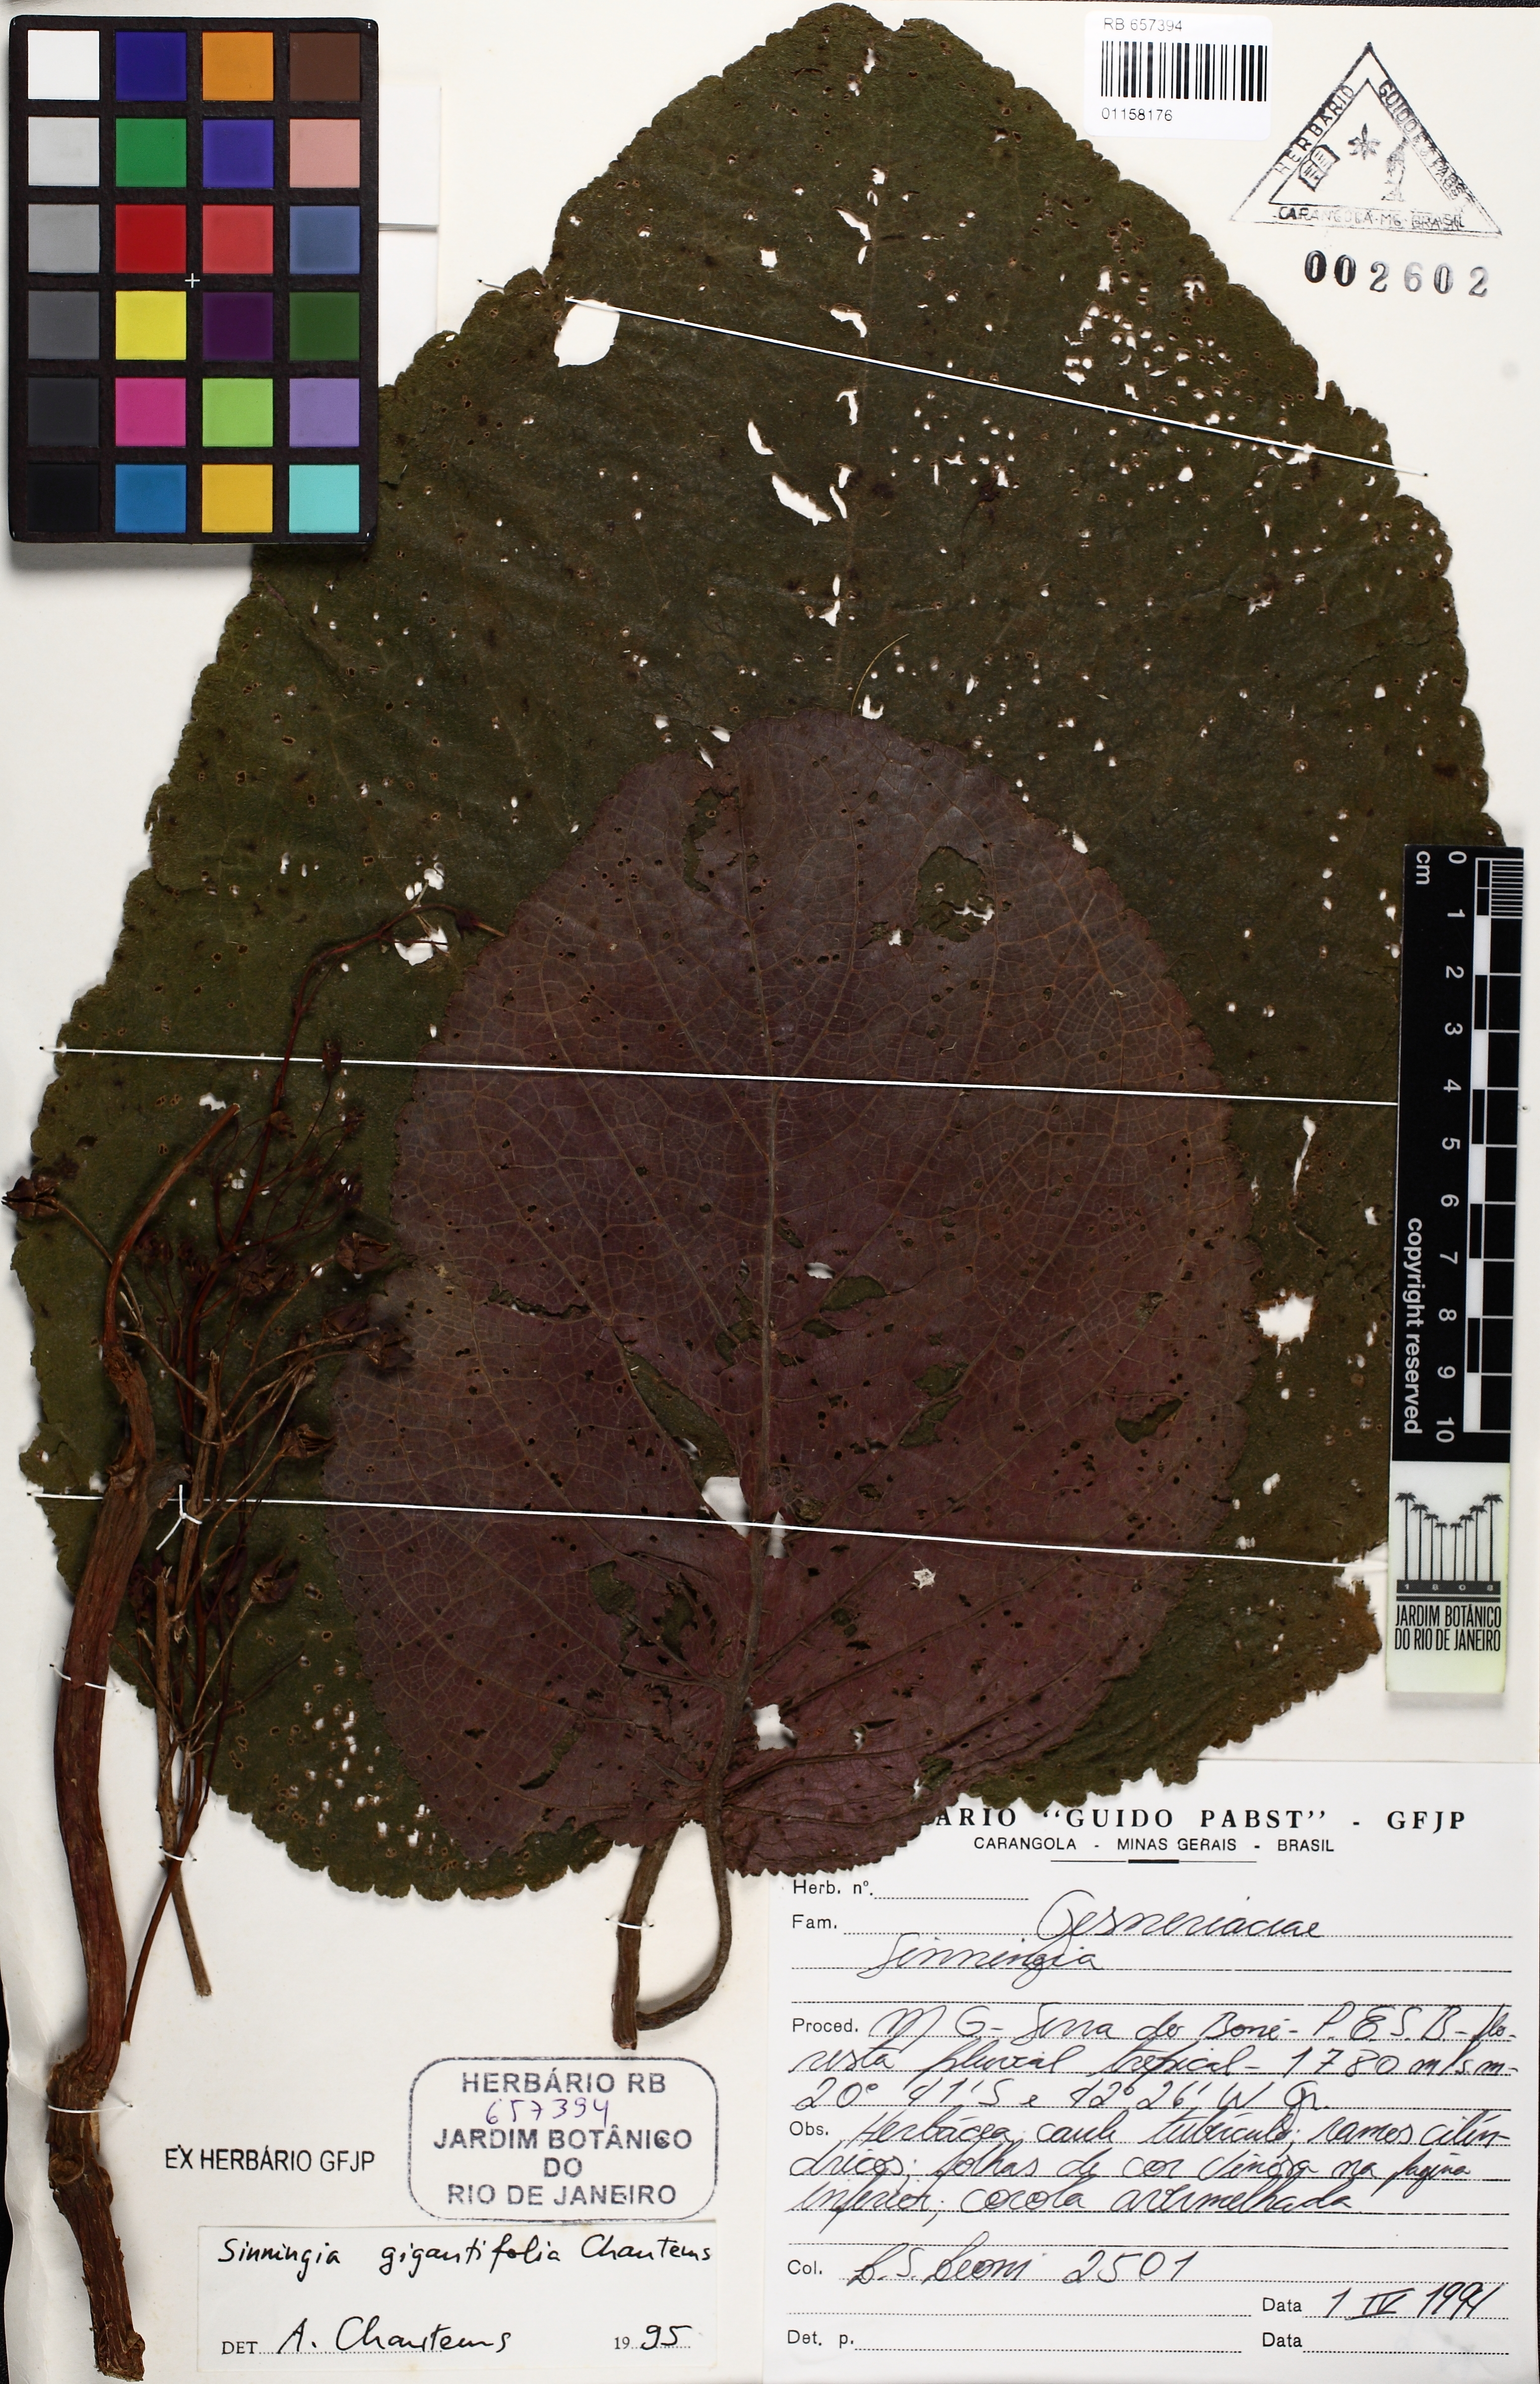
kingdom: Plantae
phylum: Tracheophyta
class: Magnoliopsida
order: Lamiales
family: Gesneriaceae
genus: Sinningia
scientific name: Sinningia gigantifolia
